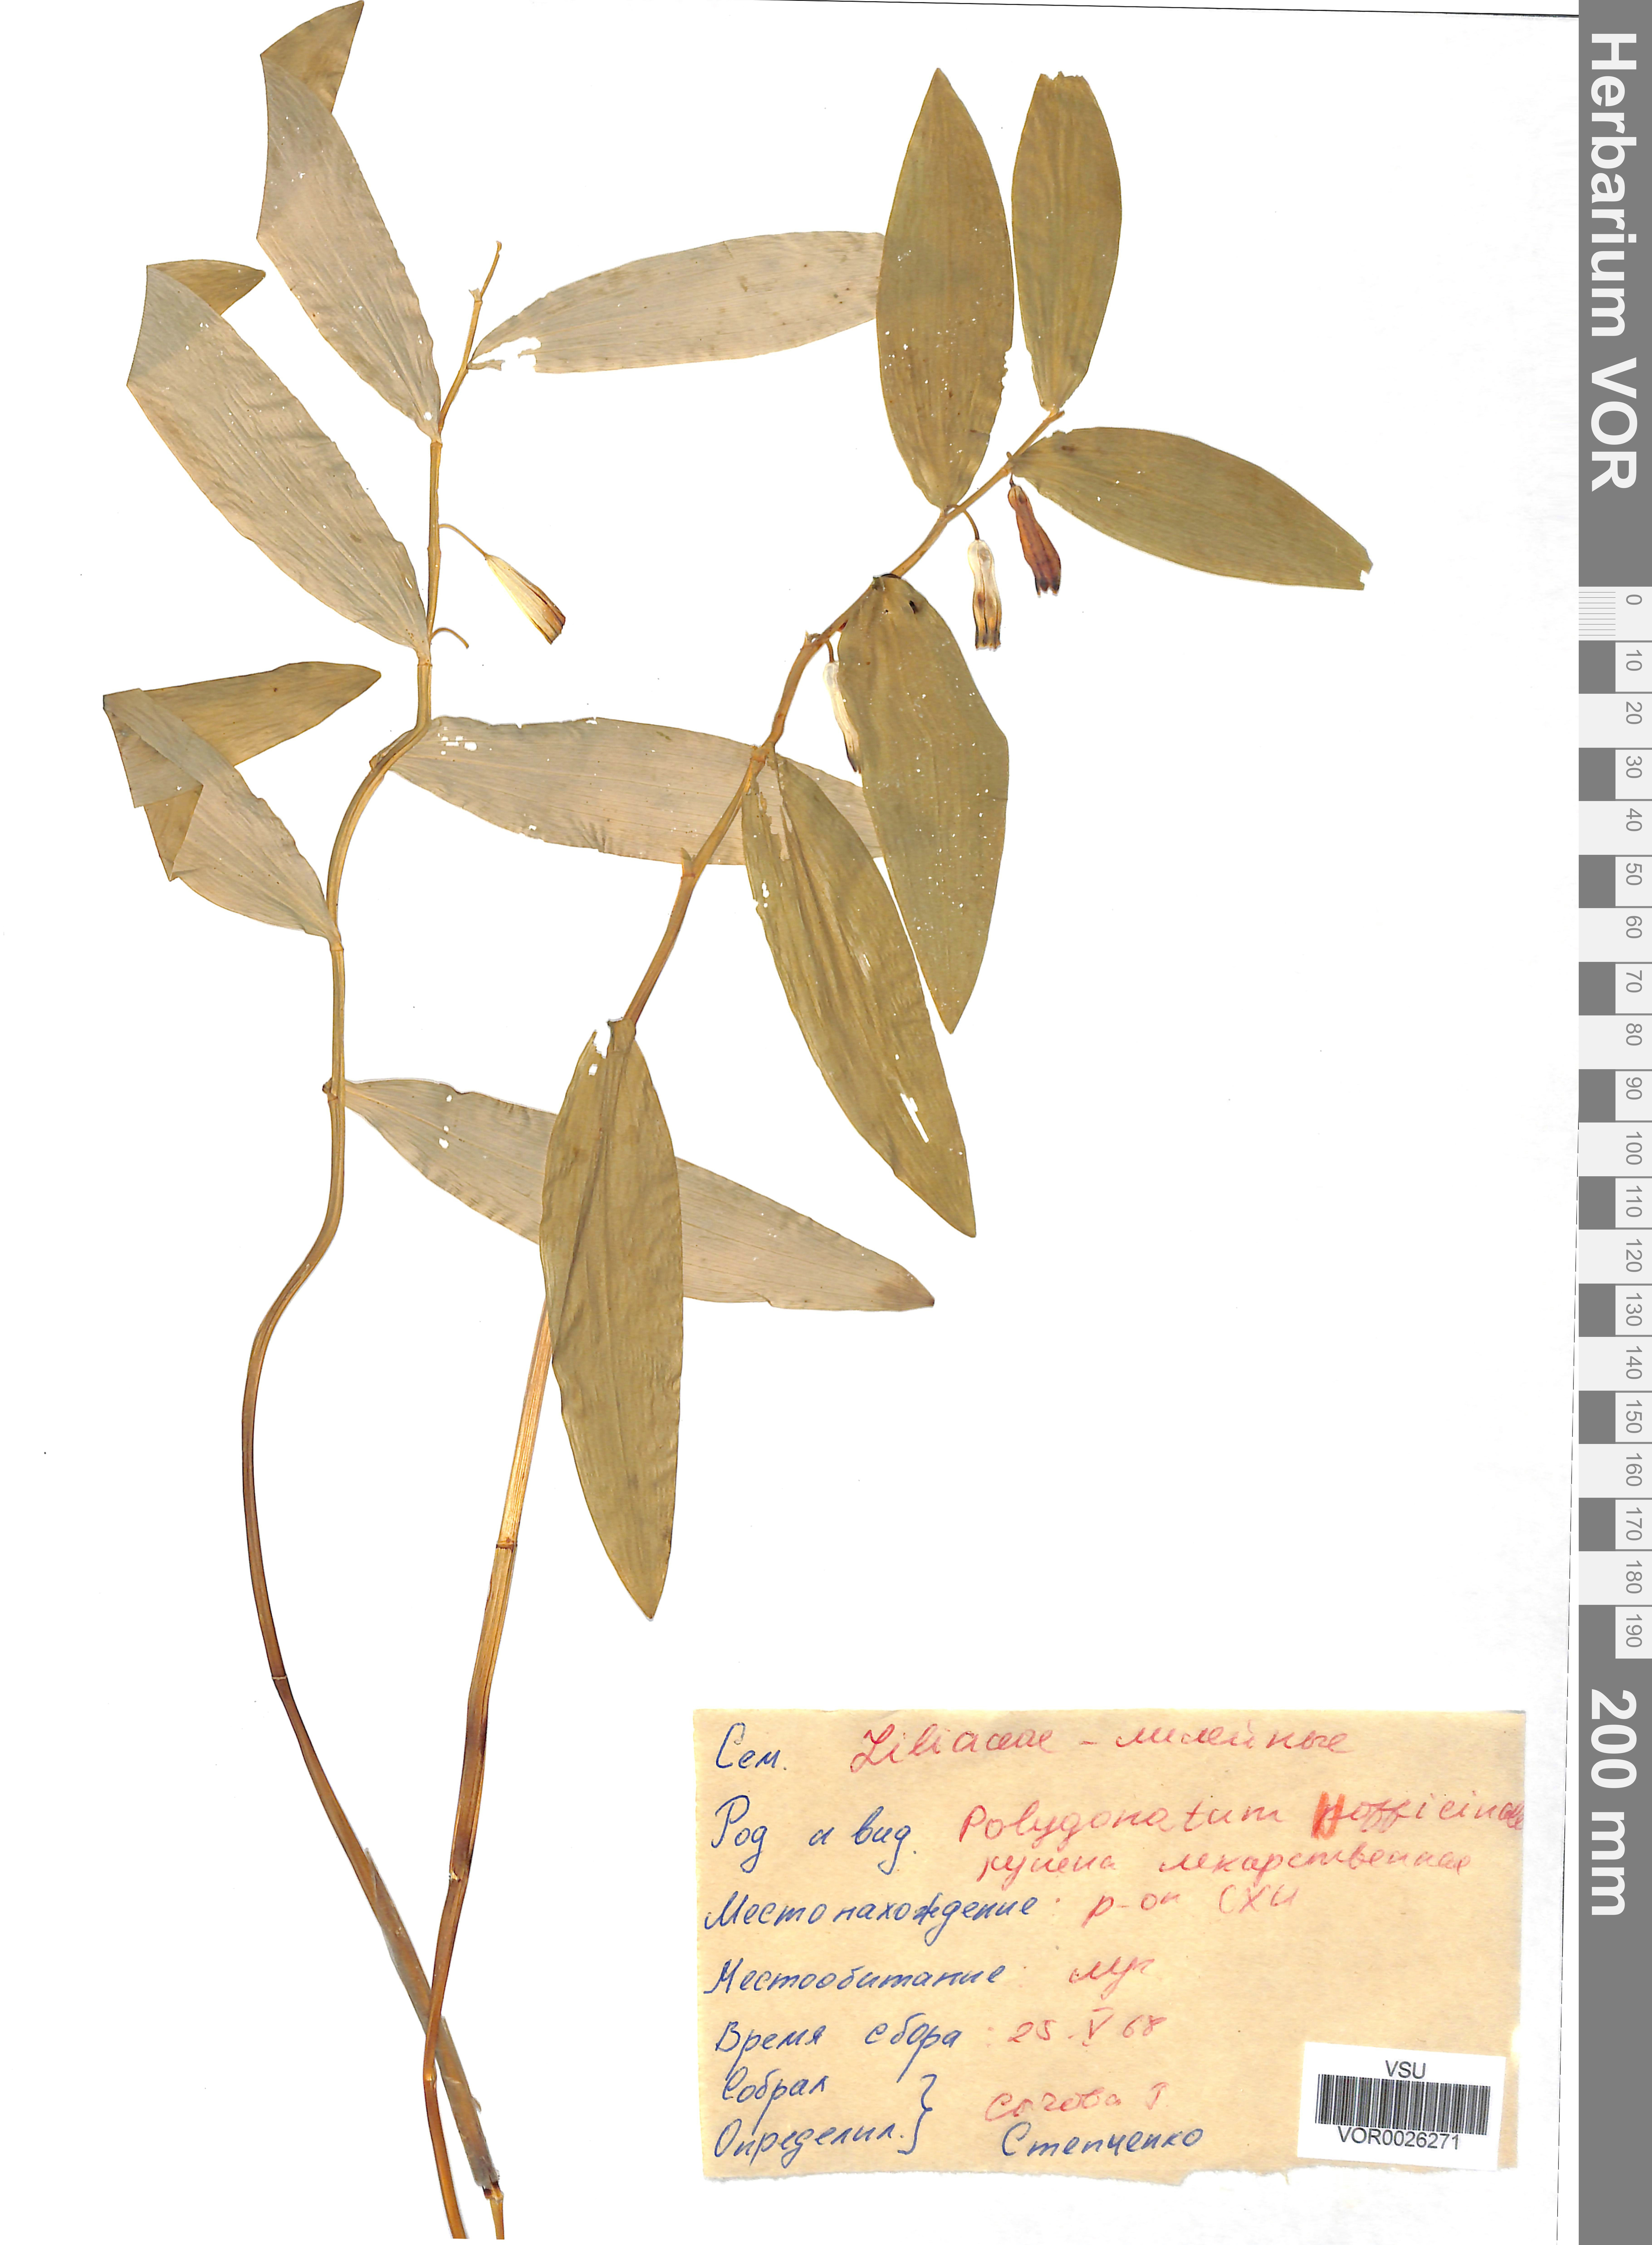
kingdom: Plantae
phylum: Tracheophyta
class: Liliopsida
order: Asparagales
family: Asparagaceae
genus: Polygonatum
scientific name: Polygonatum odoratum
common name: Angular solomon's-seal
